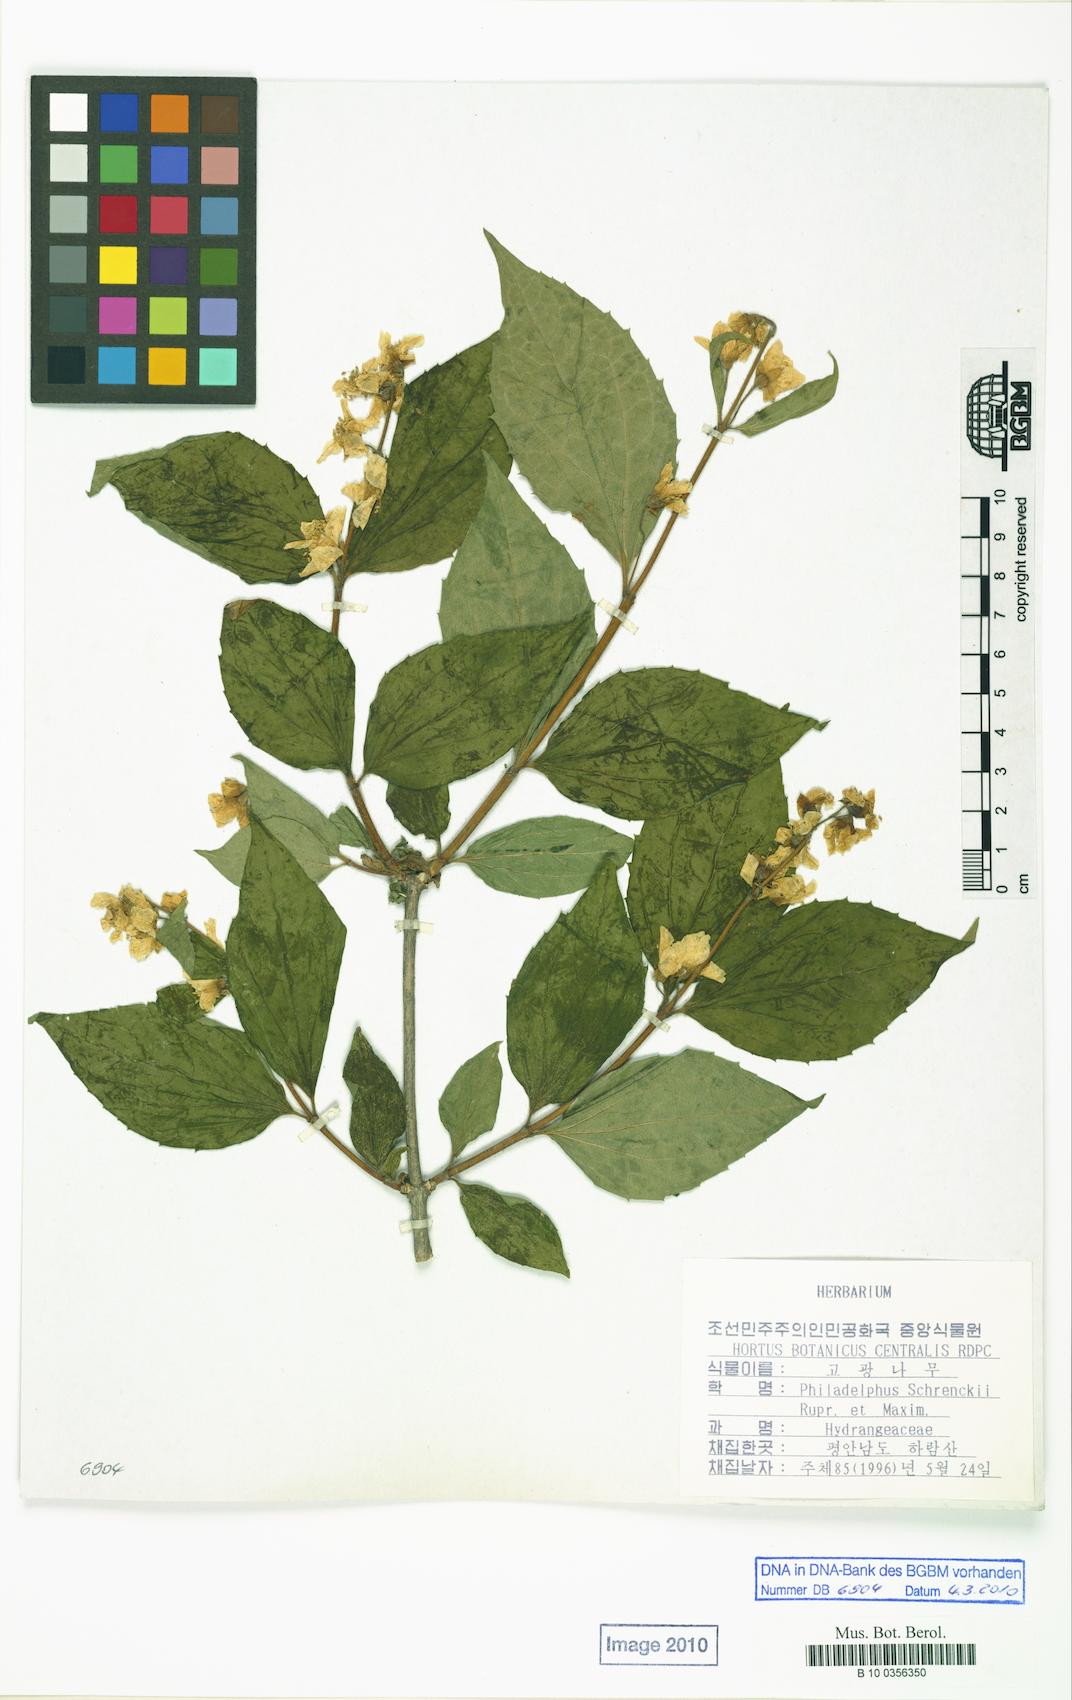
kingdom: Plantae
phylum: Tracheophyta
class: Magnoliopsida
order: Cornales
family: Hydrangeaceae
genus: Philadelphus
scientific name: Philadelphus schrenkii
